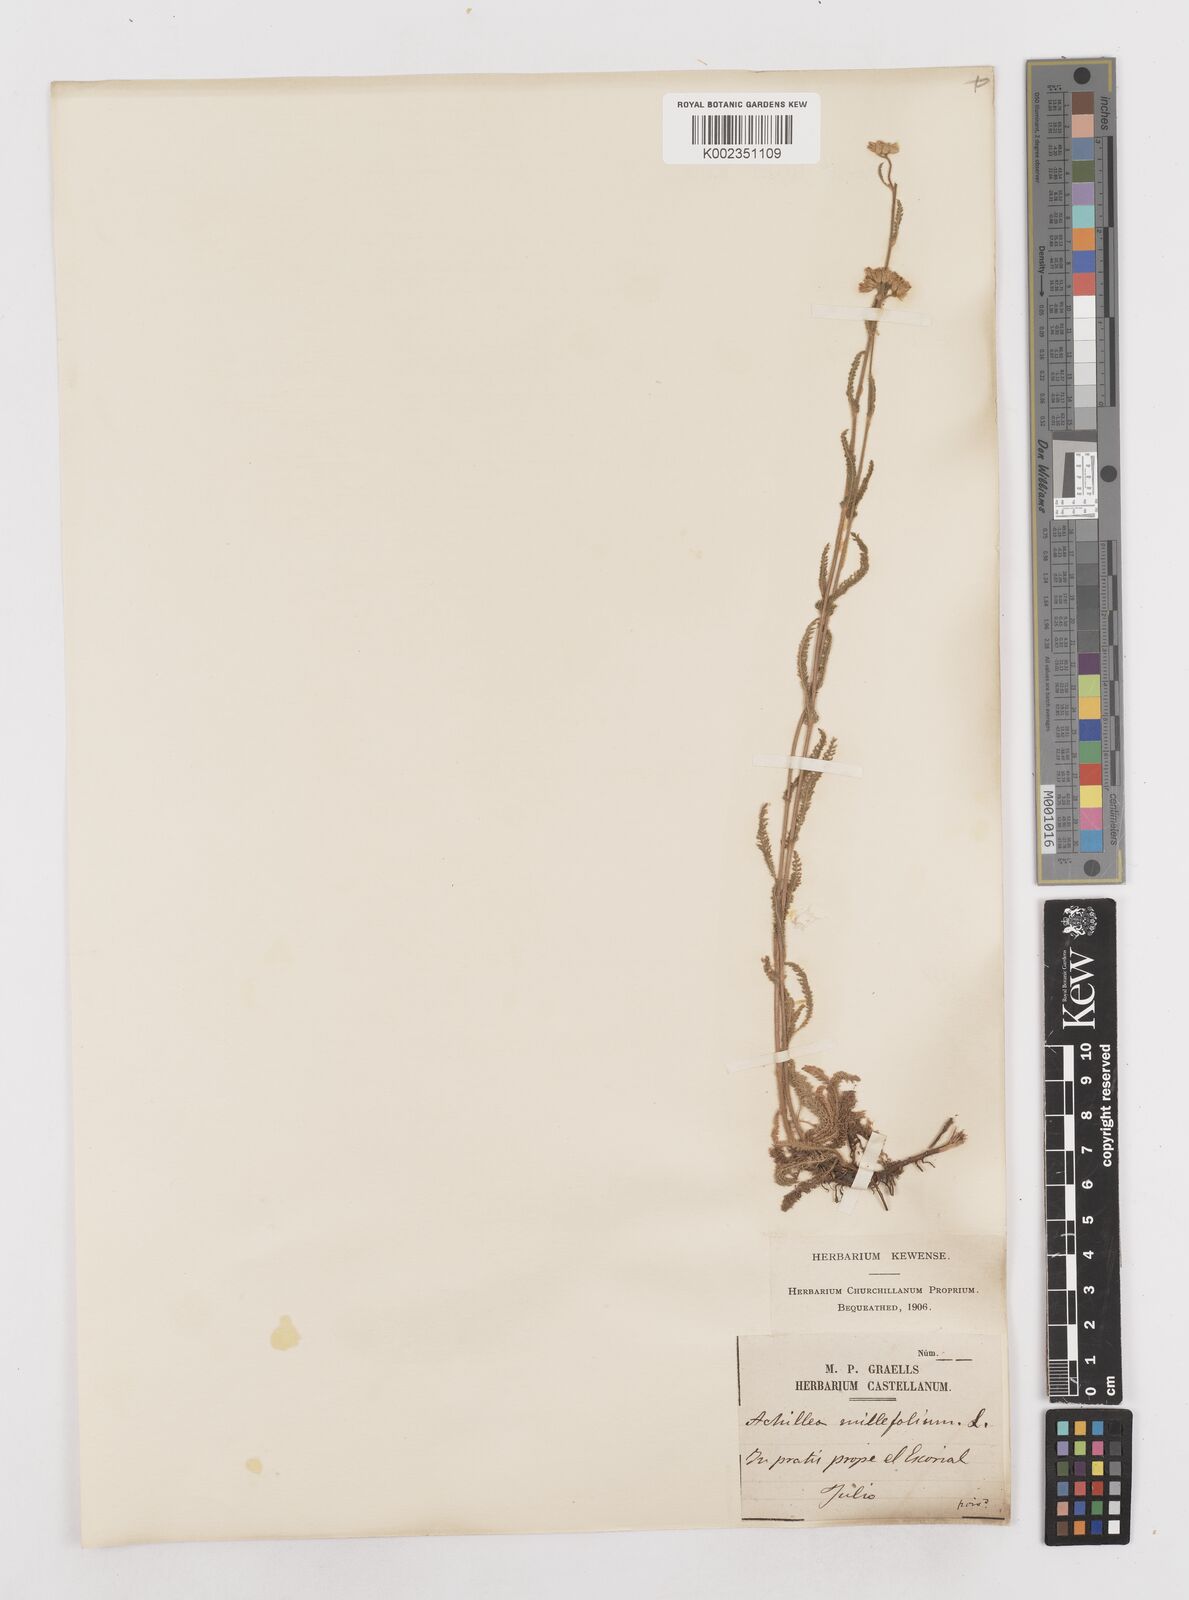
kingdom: Plantae
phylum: Tracheophyta
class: Magnoliopsida
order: Asterales
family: Asteraceae
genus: Achillea
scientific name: Achillea millefolium
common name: Yarrow
